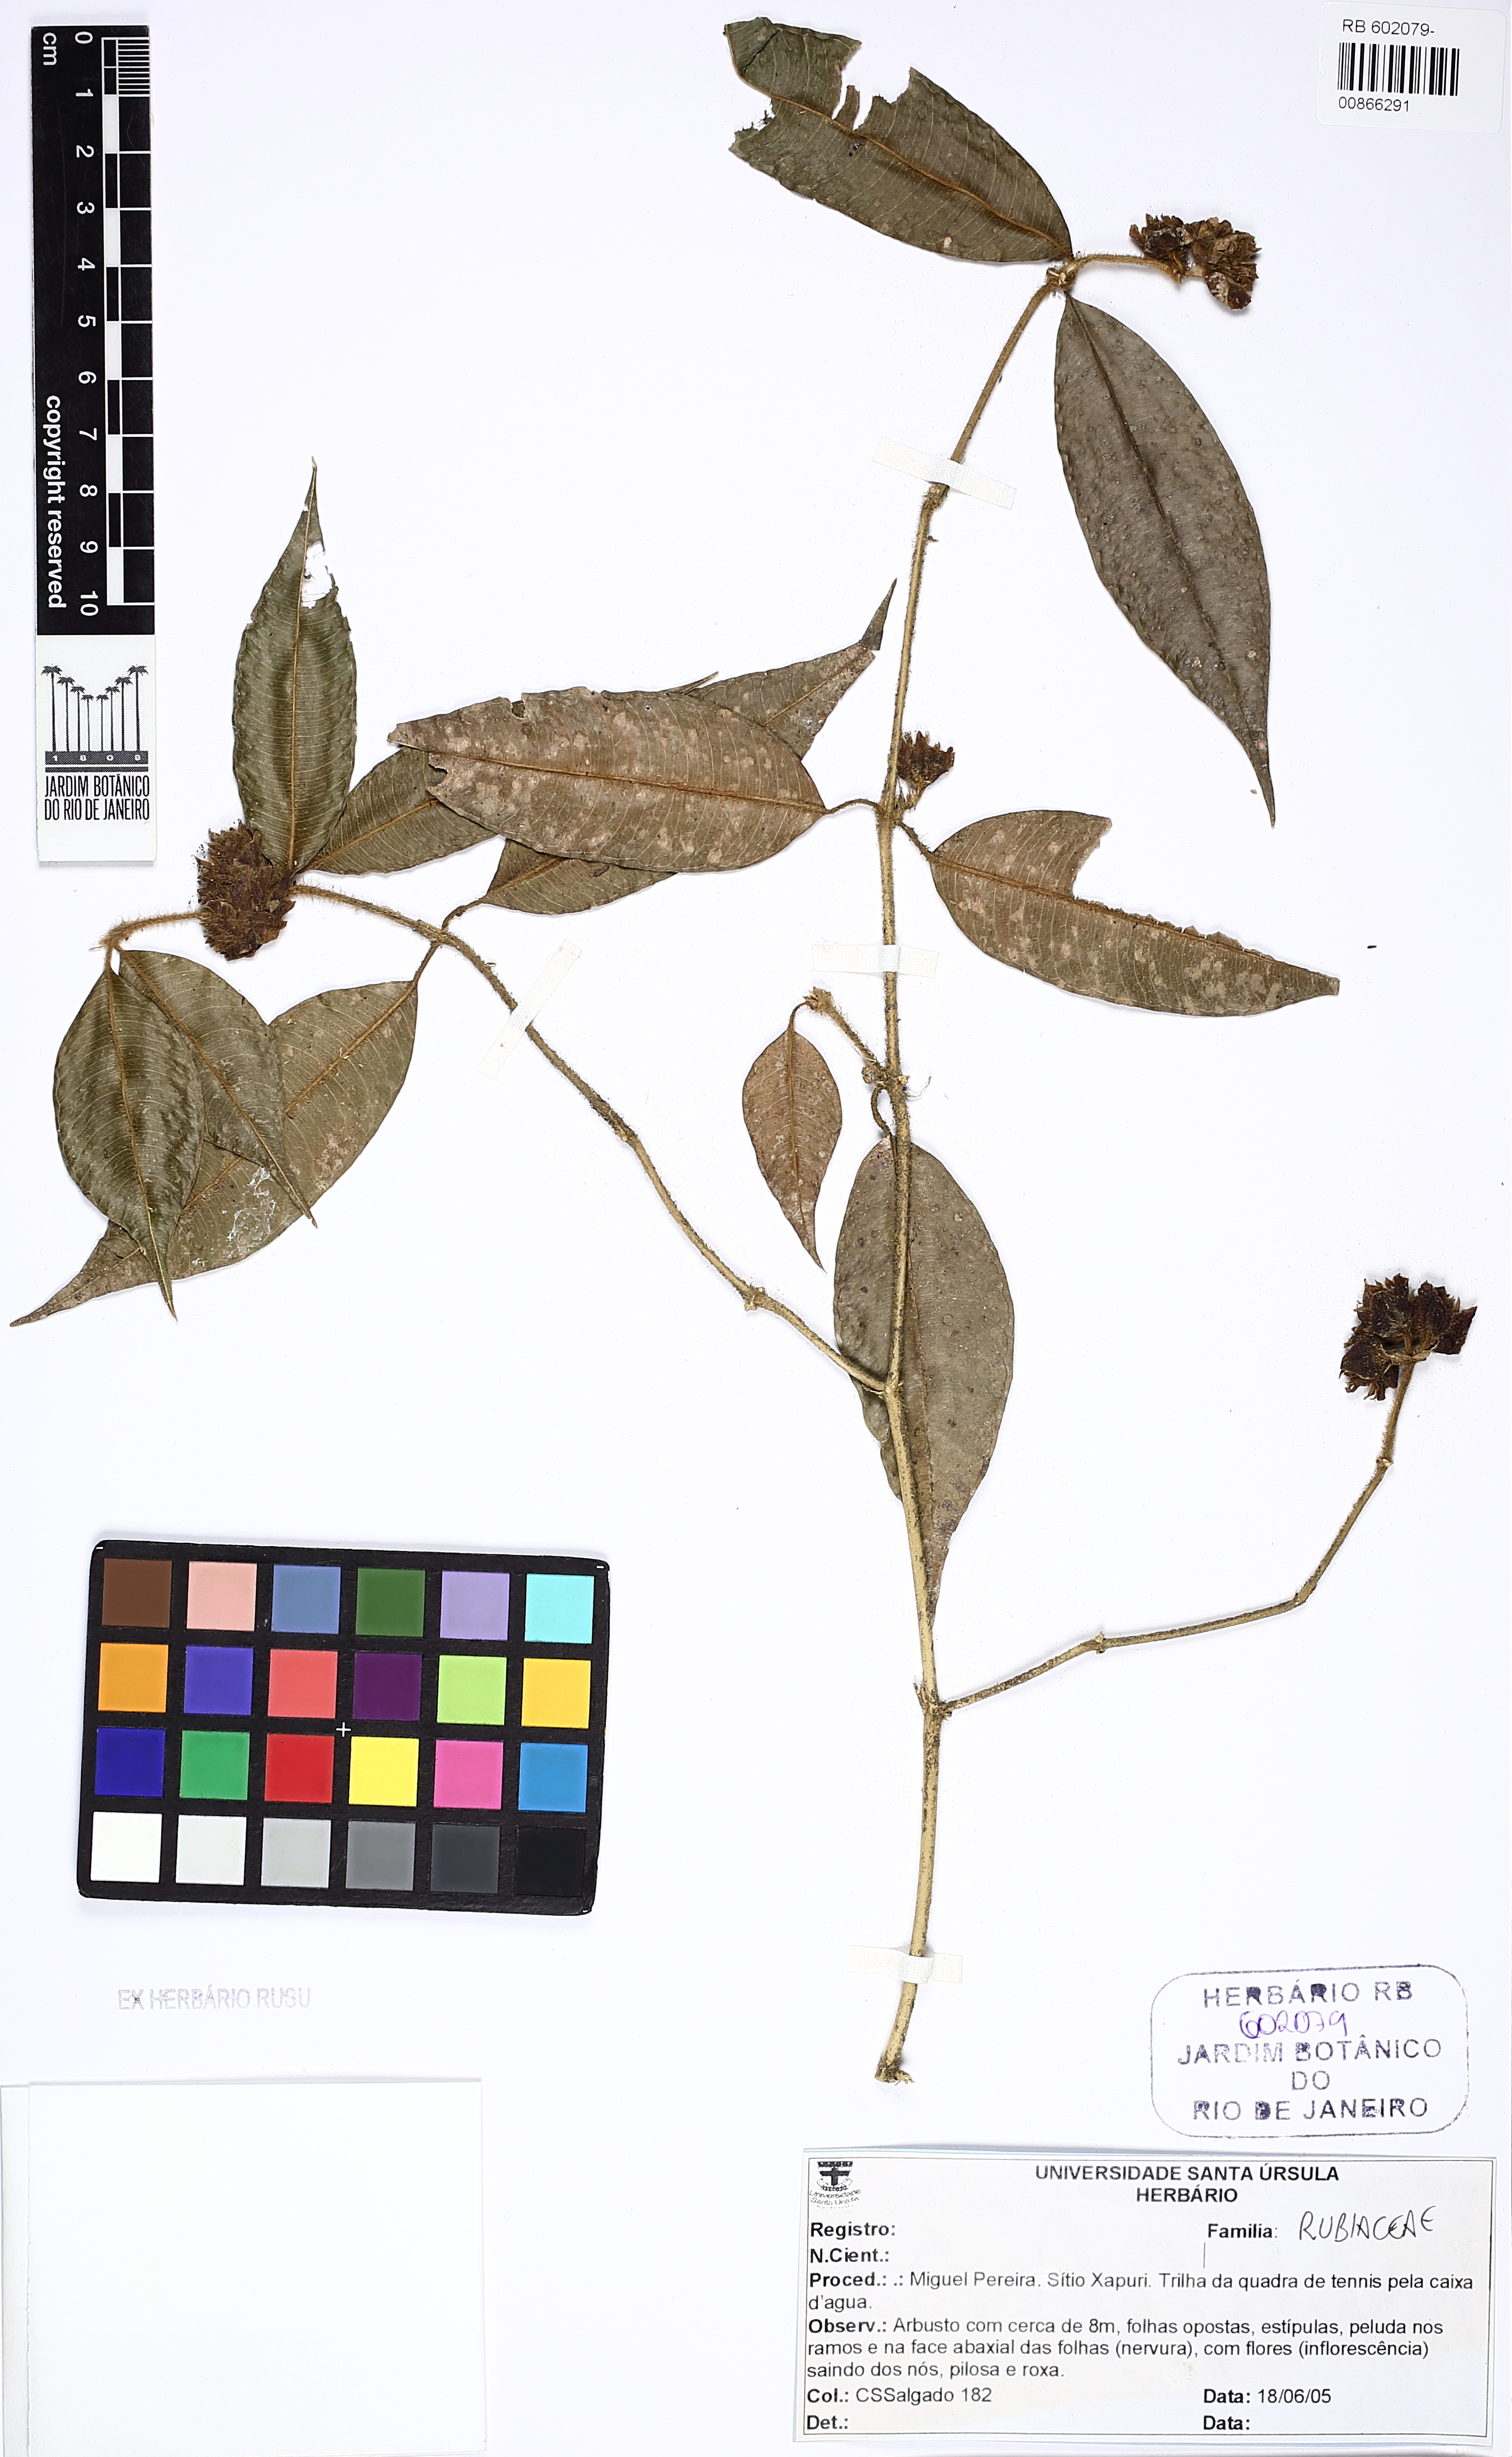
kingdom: Plantae
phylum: Tracheophyta
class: Magnoliopsida
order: Gentianales
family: Rubiaceae
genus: Palicourea
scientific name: Palicourea sessilis
